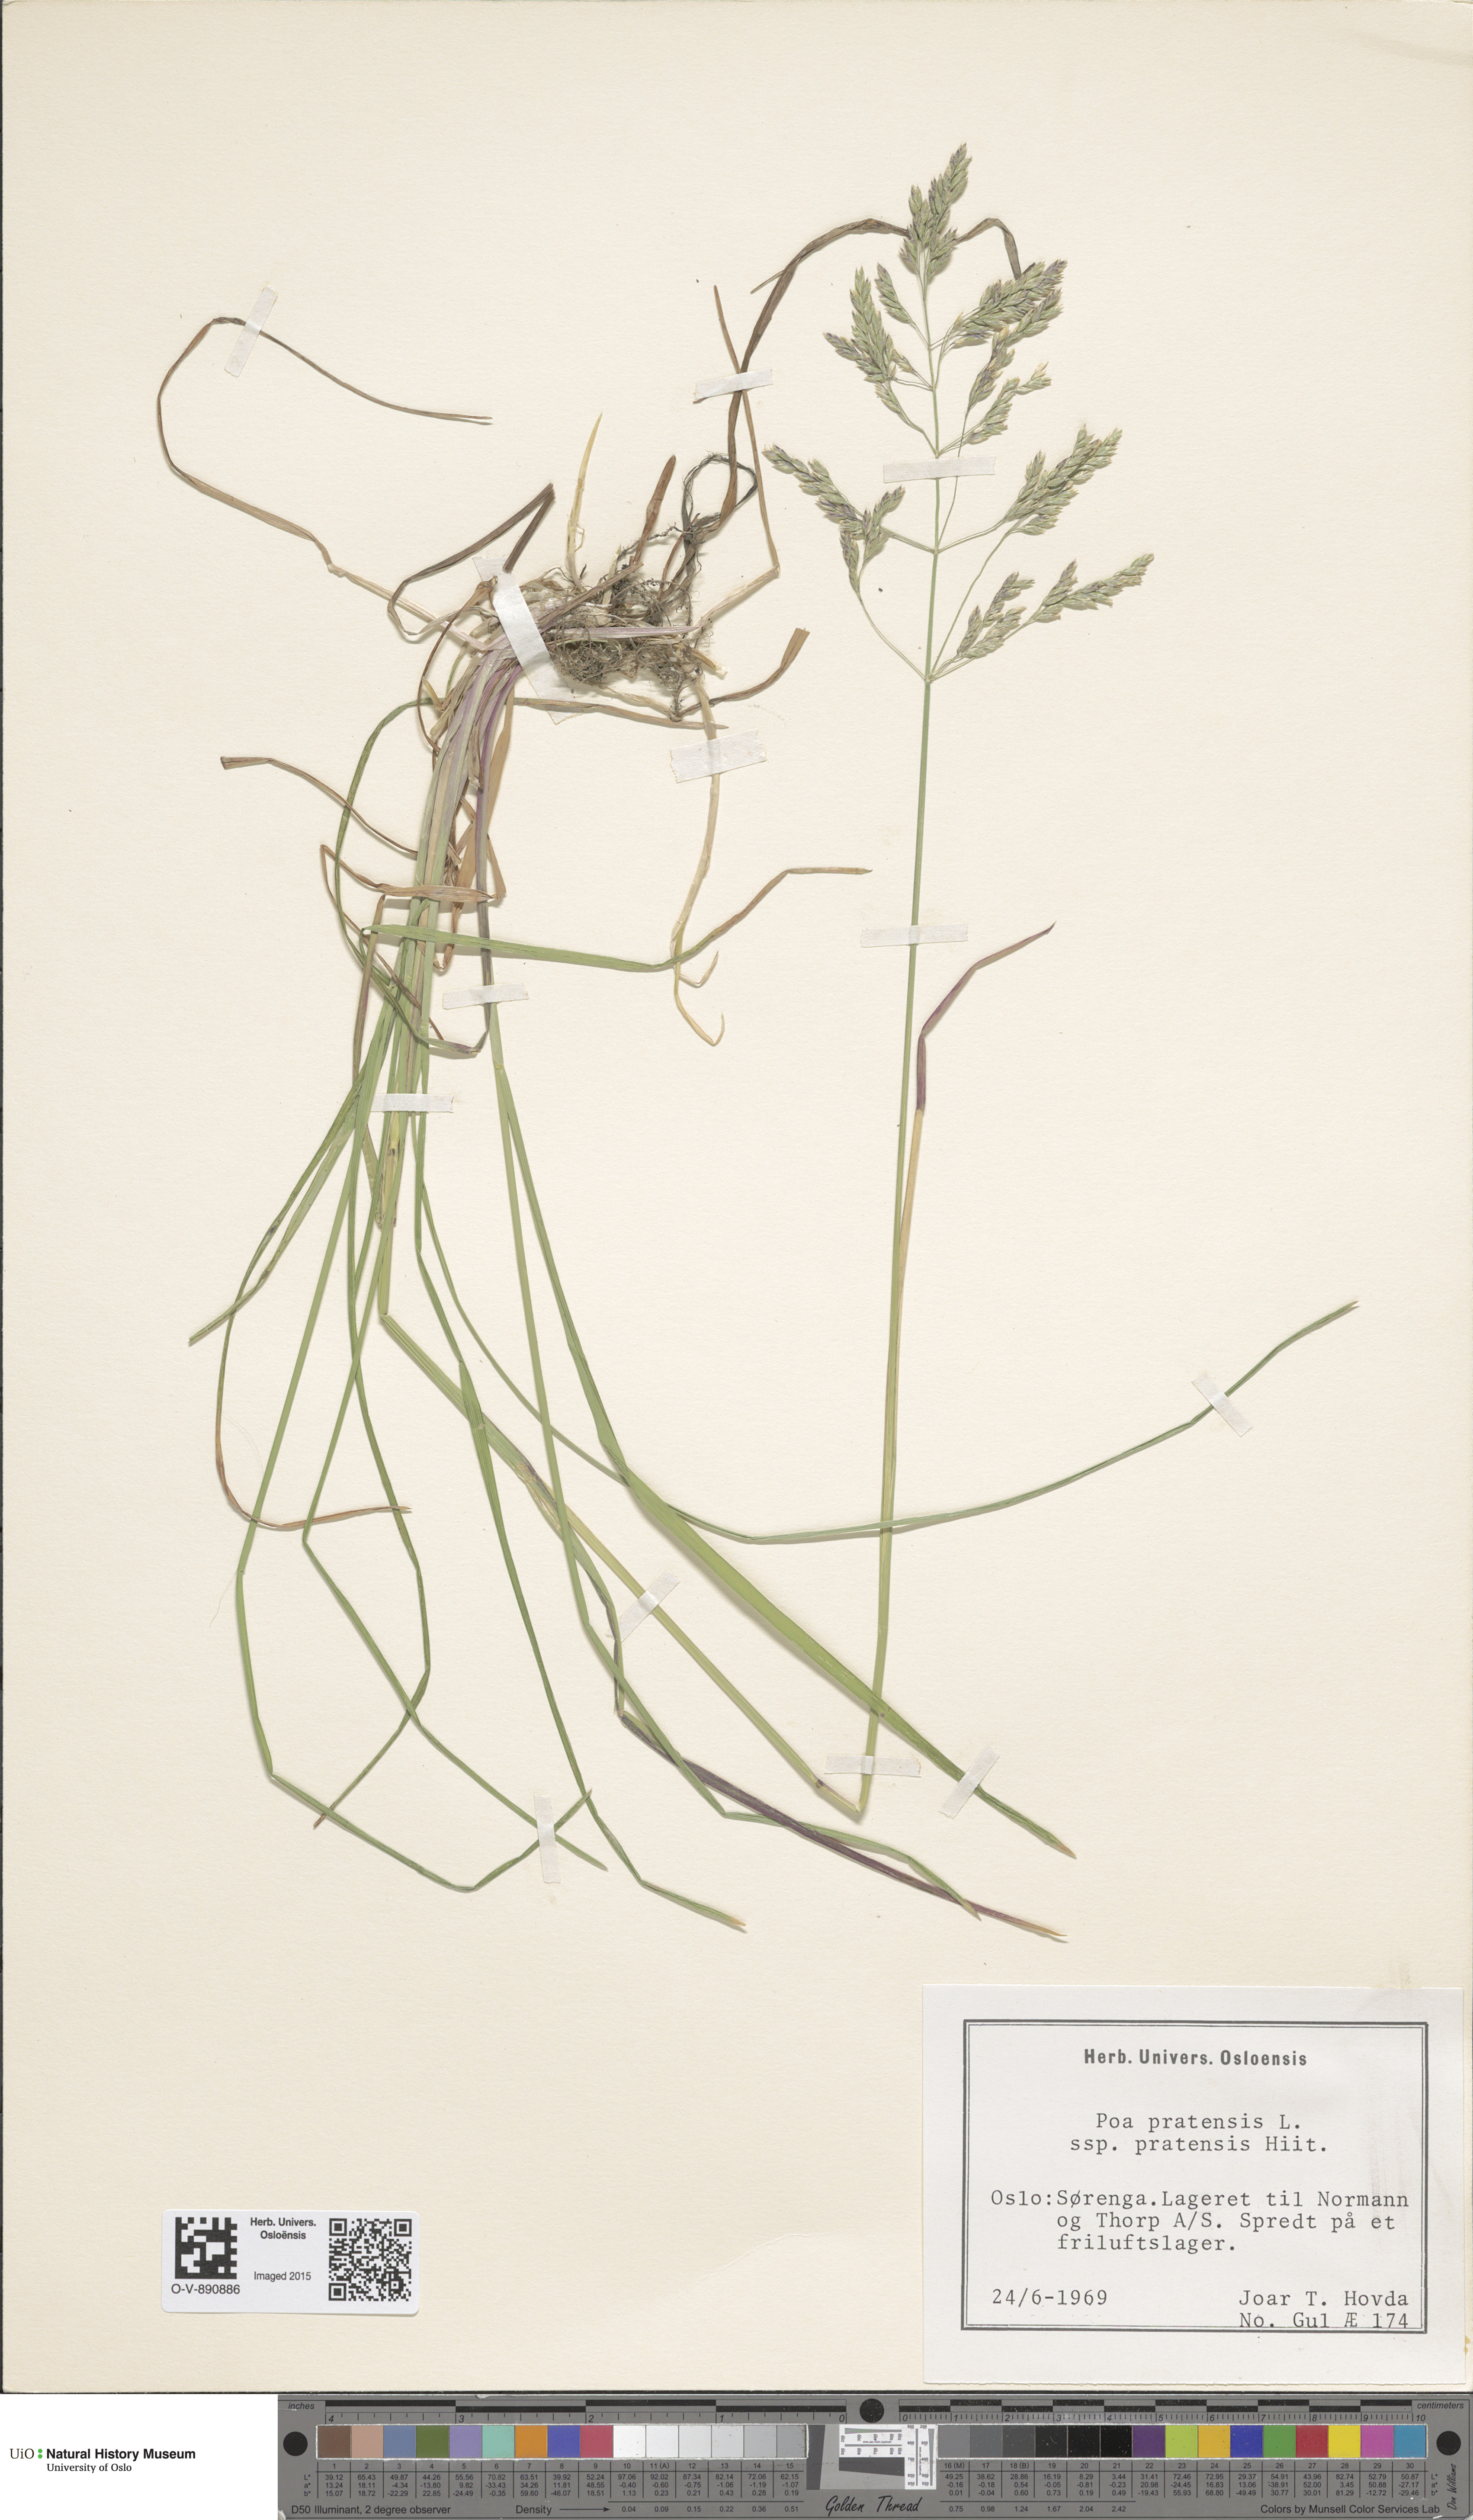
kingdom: Plantae
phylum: Tracheophyta
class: Liliopsida
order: Poales
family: Poaceae
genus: Poa
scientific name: Poa pratensis
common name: Kentucky bluegrass
